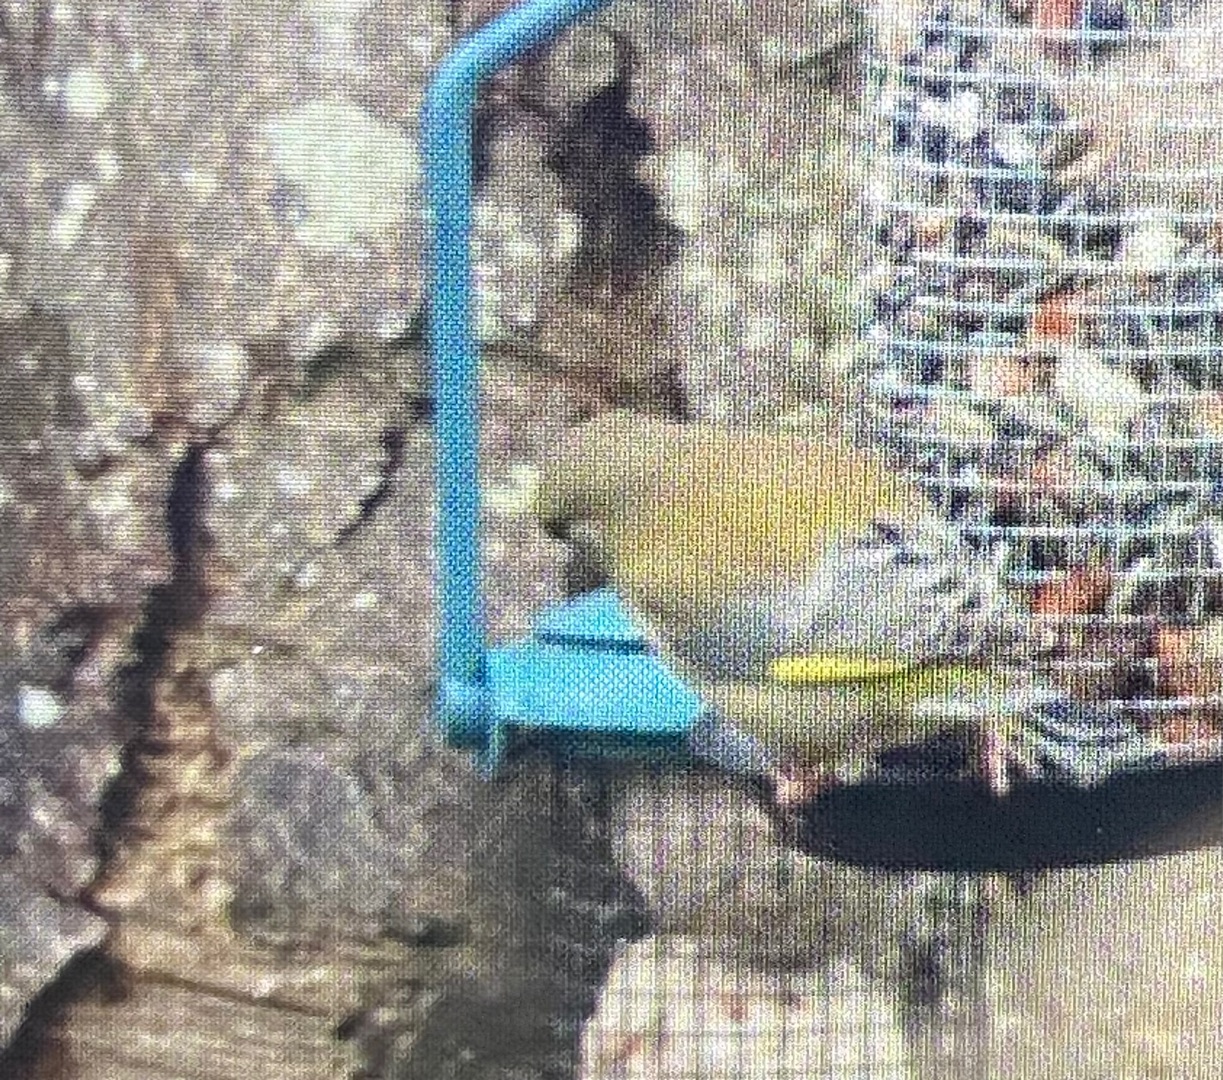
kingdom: Plantae
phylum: Tracheophyta
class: Liliopsida
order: Poales
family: Poaceae
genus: Chloris
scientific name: Chloris chloris
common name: Grønirisk
